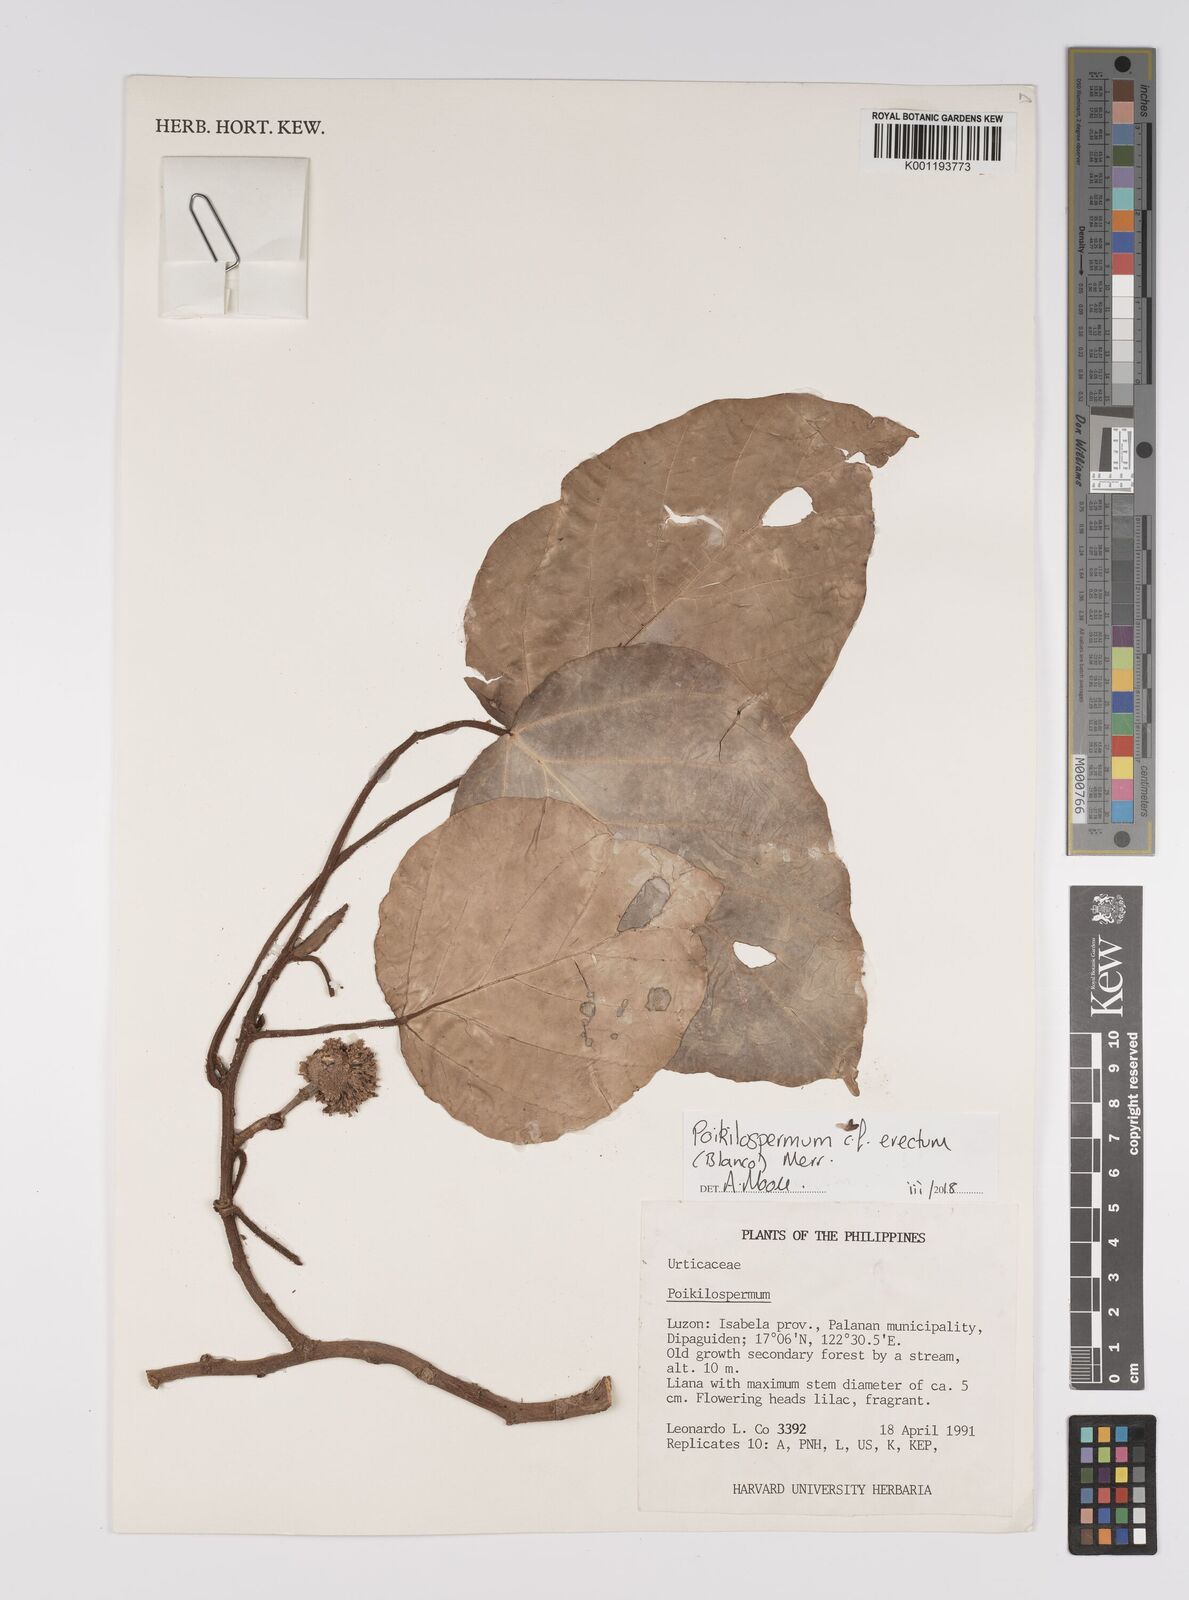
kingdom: Plantae
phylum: Tracheophyta
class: Magnoliopsida
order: Rosales
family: Urticaceae
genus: Poikilospermum
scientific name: Poikilospermum
